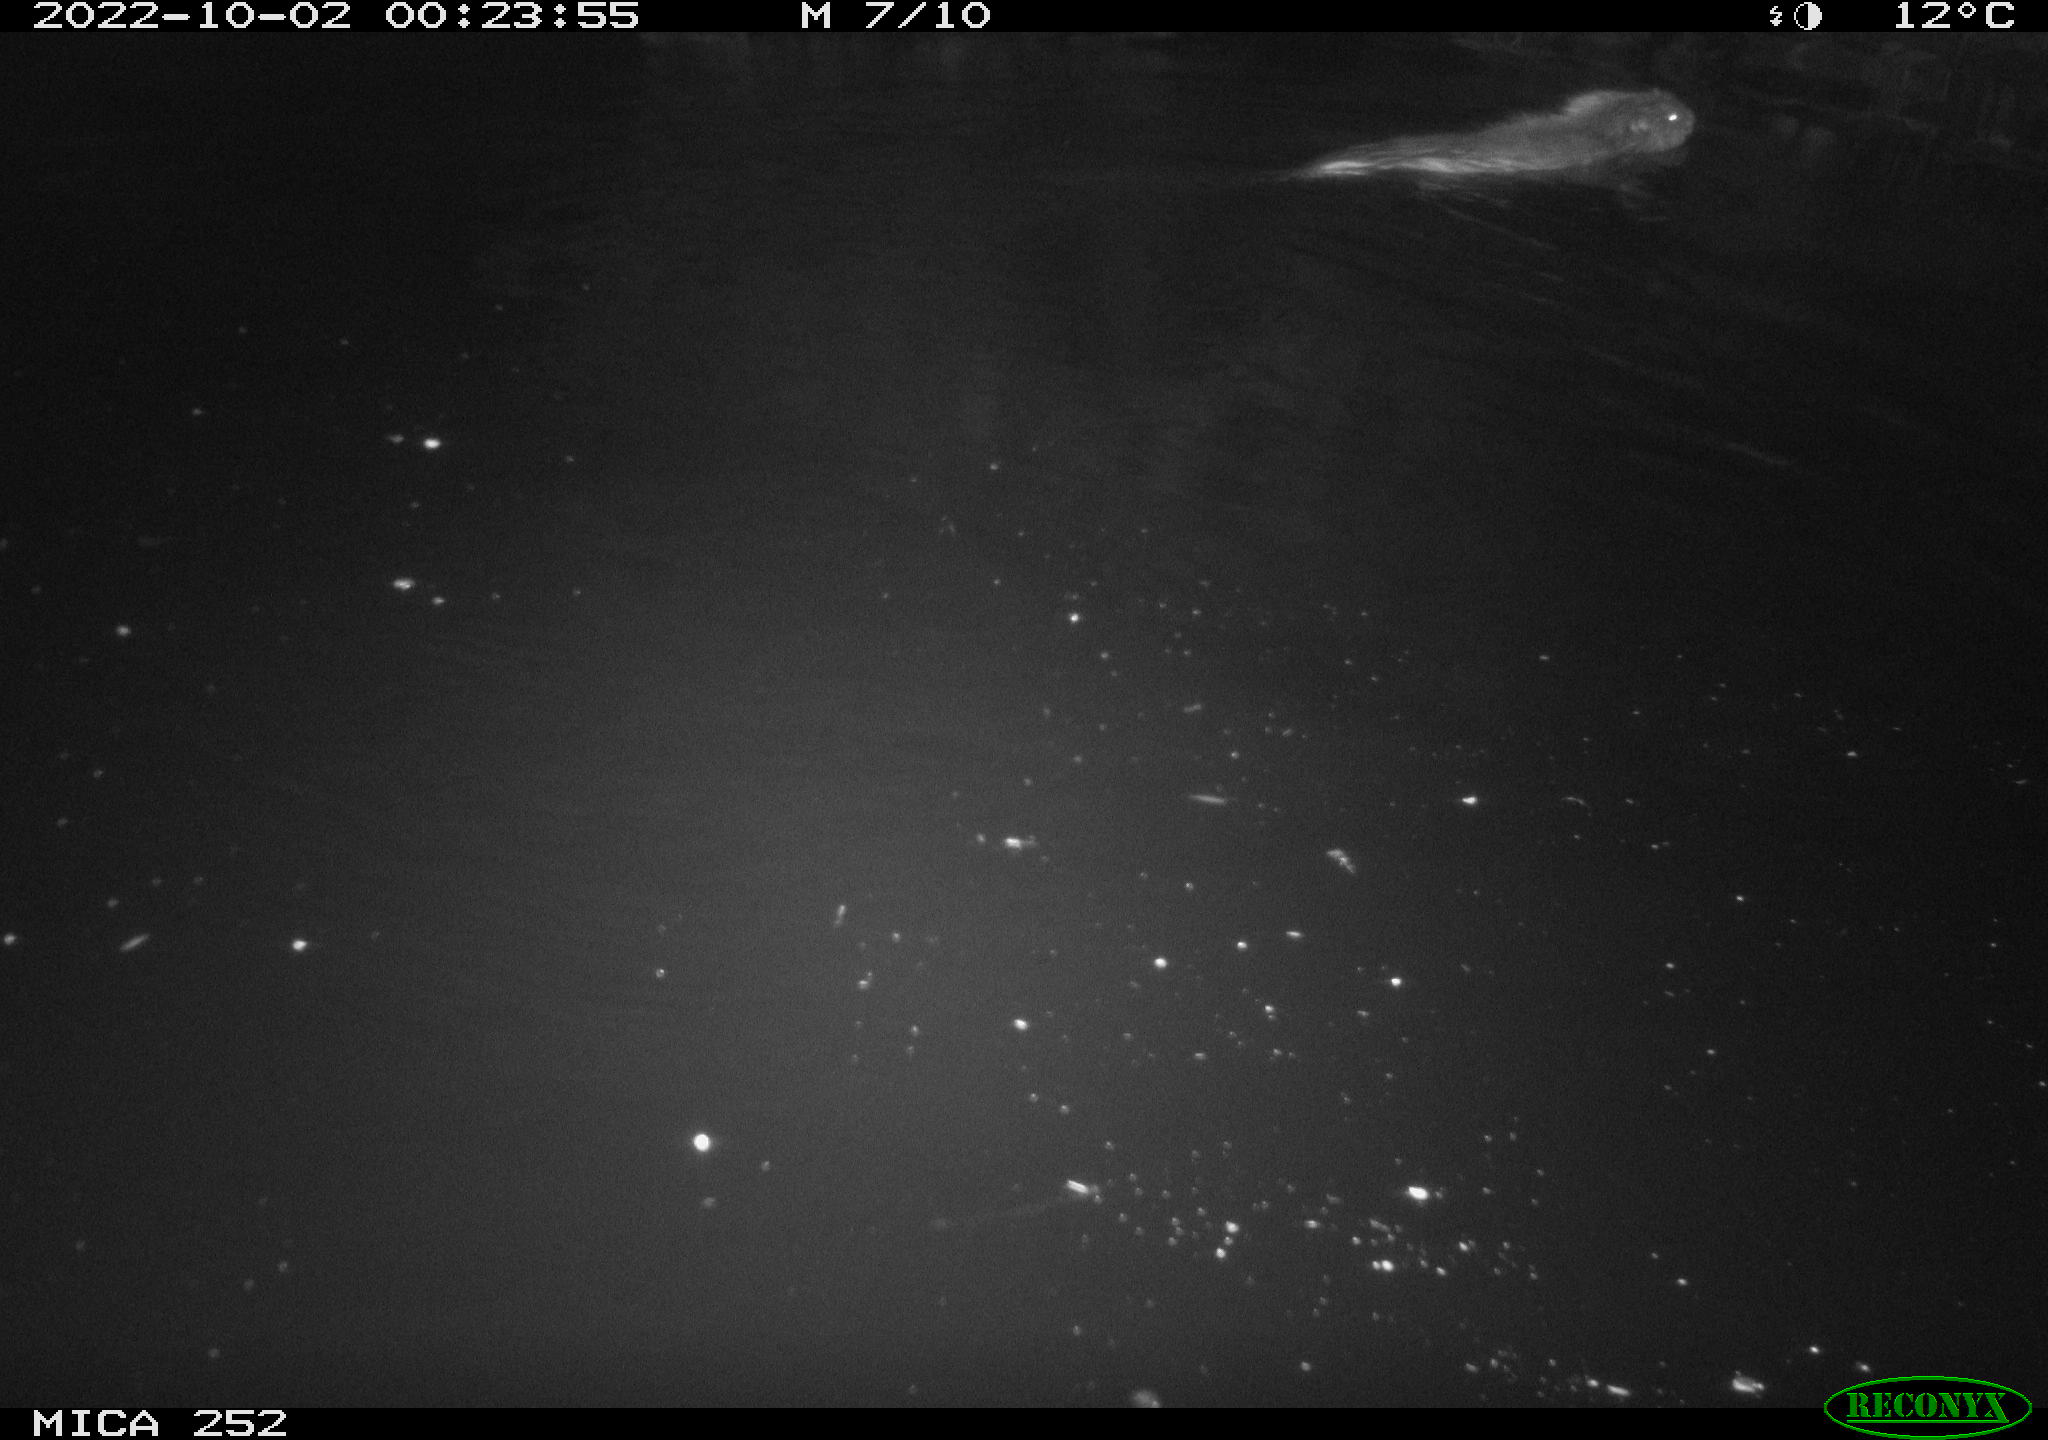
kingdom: Animalia
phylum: Chordata
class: Mammalia
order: Rodentia
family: Castoridae
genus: Castor
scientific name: Castor fiber
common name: Eurasian beaver
